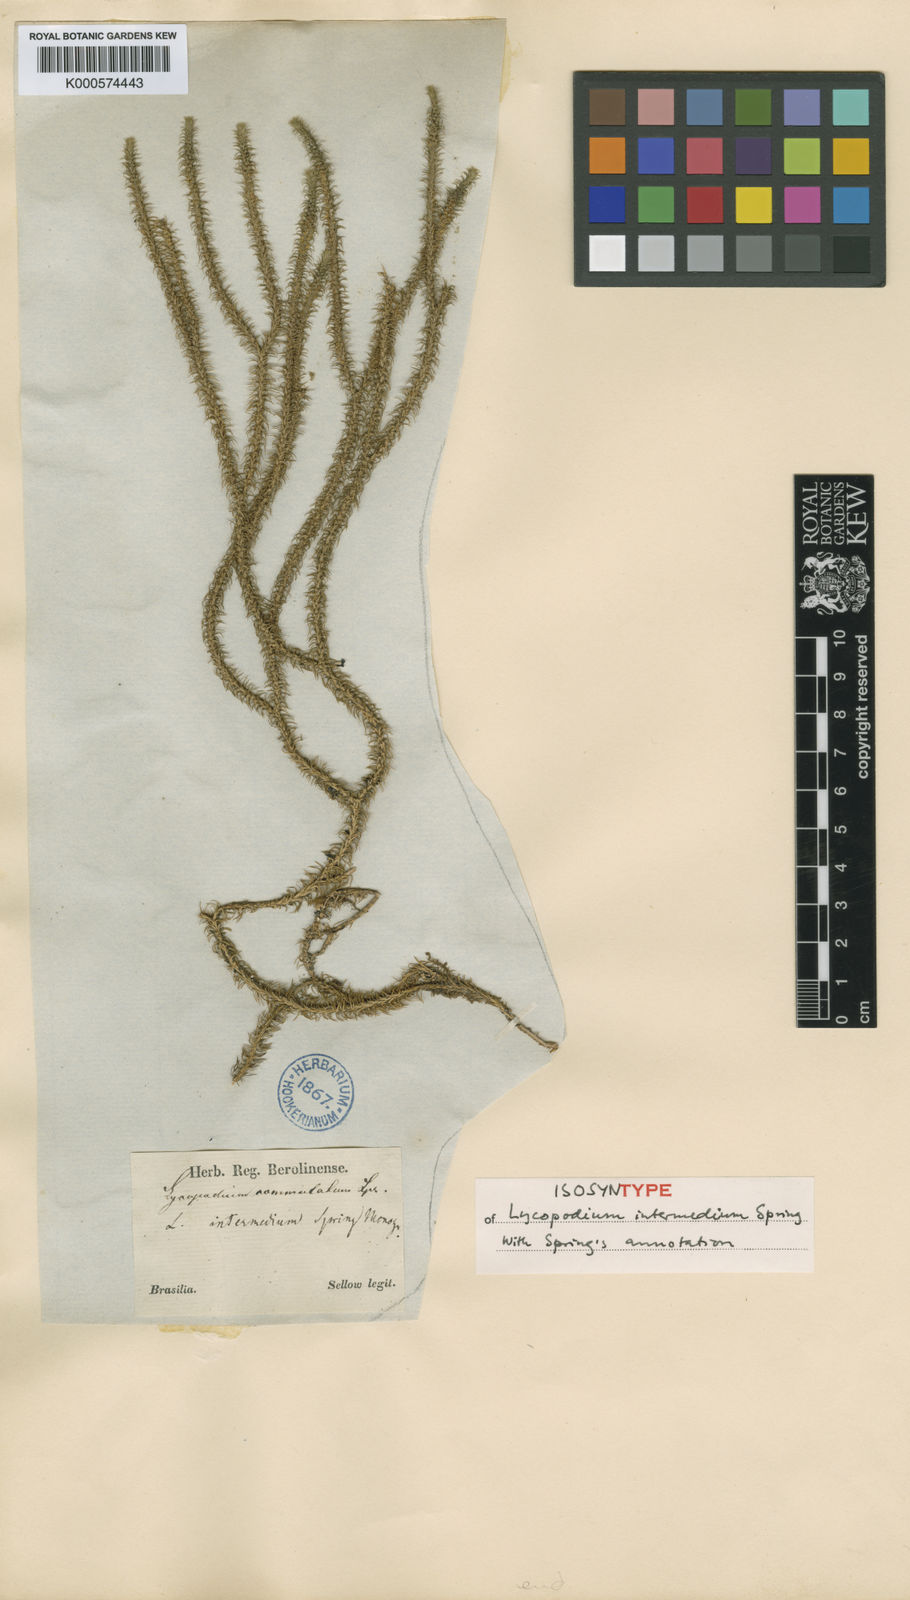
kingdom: Plantae
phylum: Tracheophyta
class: Lycopodiopsida
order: Lycopodiales
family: Lycopodiaceae
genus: Phlegmariurus
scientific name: Phlegmariurus intermedius
